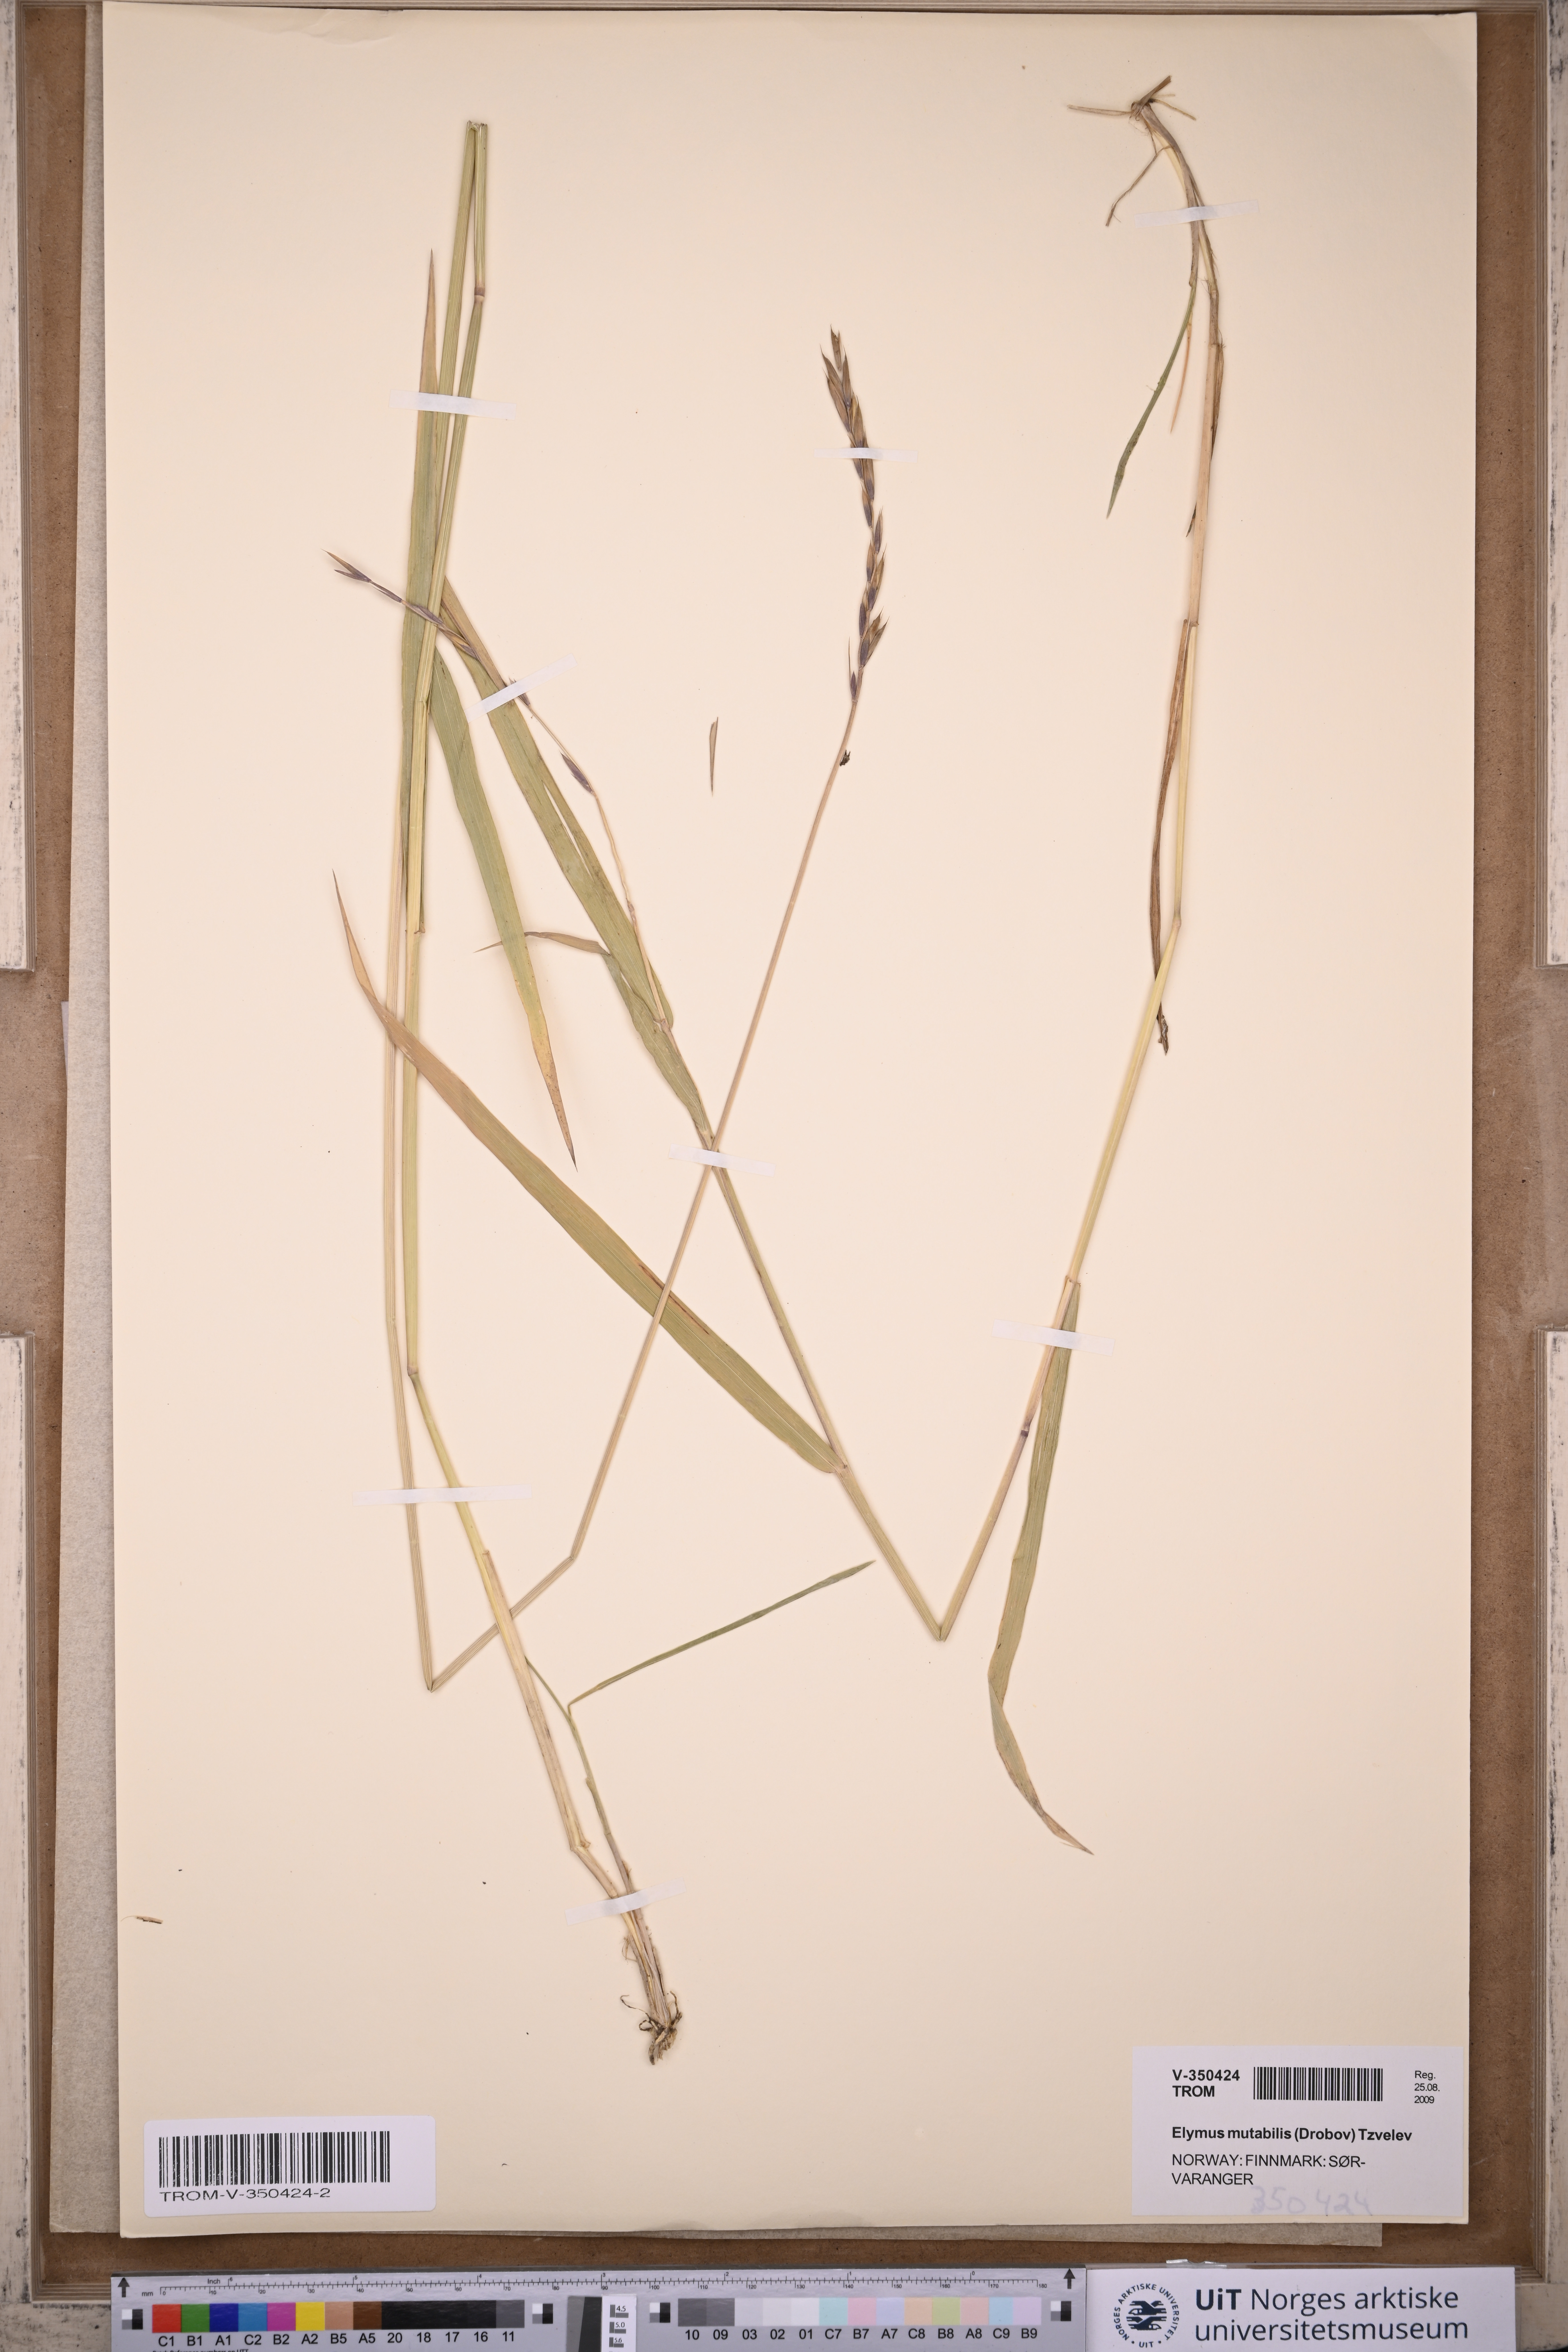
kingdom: Plantae
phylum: Tracheophyta
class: Liliopsida
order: Poales
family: Poaceae
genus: Elymus
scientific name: Elymus mutabilis
